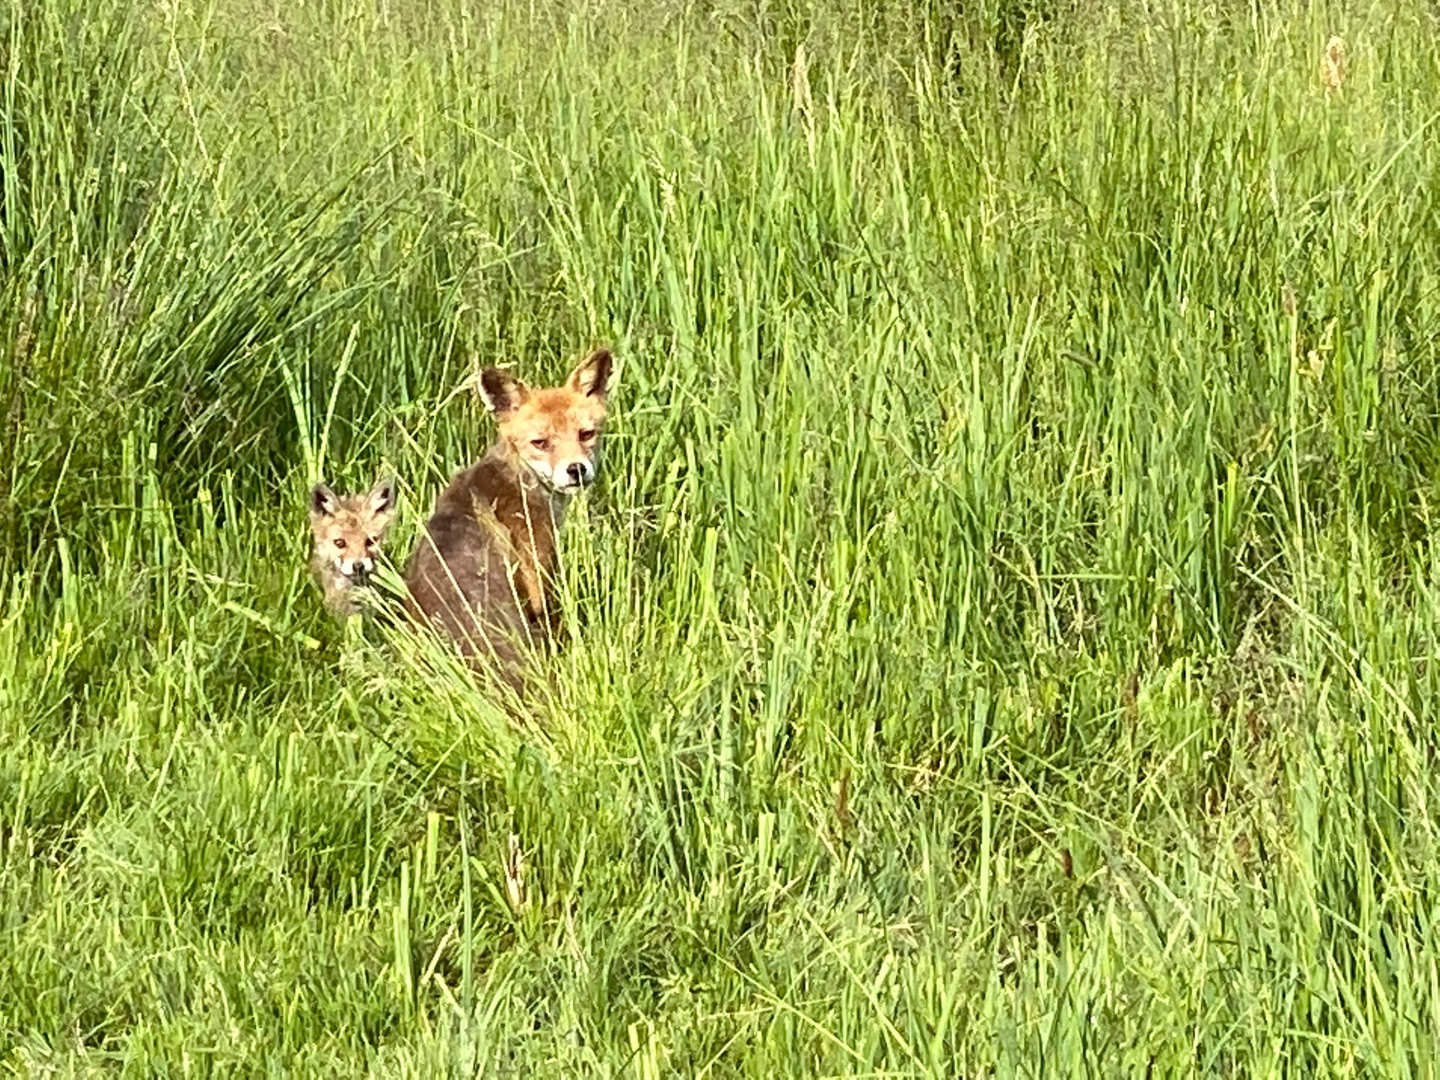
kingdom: Animalia
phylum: Chordata
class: Mammalia
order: Carnivora
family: Canidae
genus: Vulpes
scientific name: Vulpes vulpes
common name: Ræv
